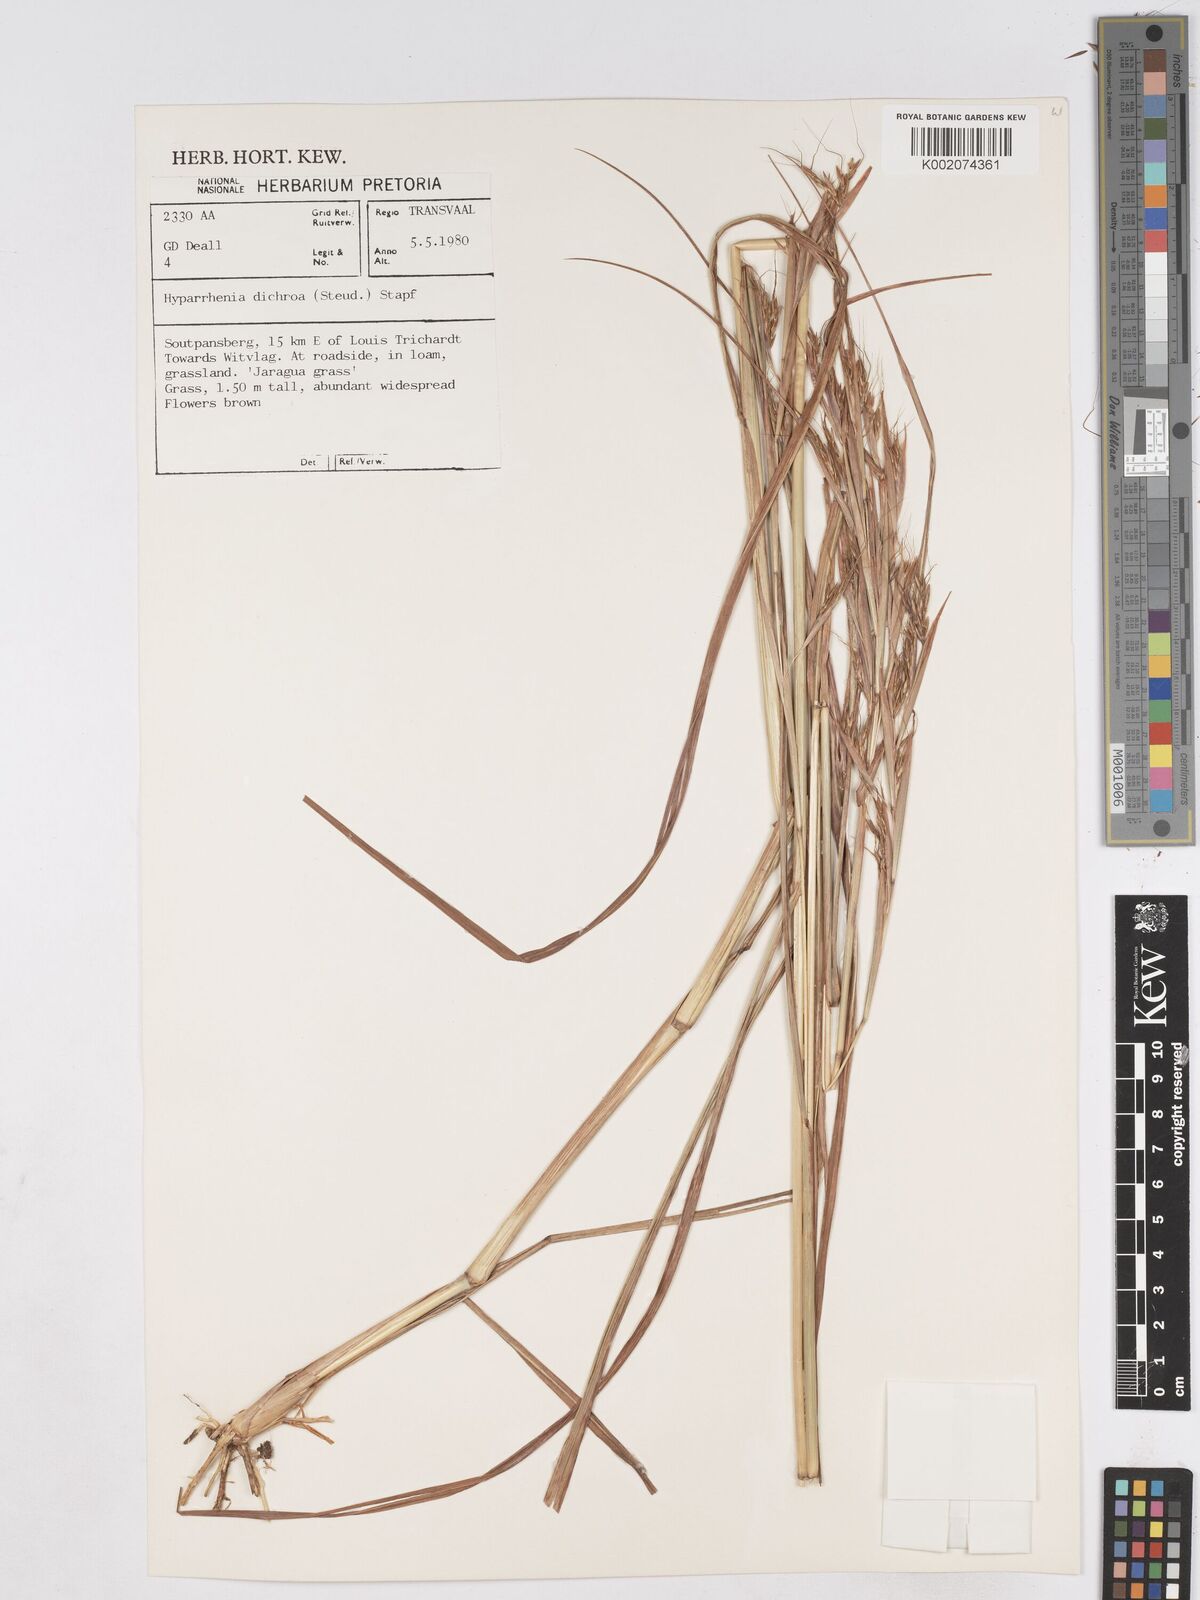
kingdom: Plantae
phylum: Tracheophyta
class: Liliopsida
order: Poales
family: Poaceae
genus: Hyparrhenia
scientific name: Hyparrhenia dichroa
